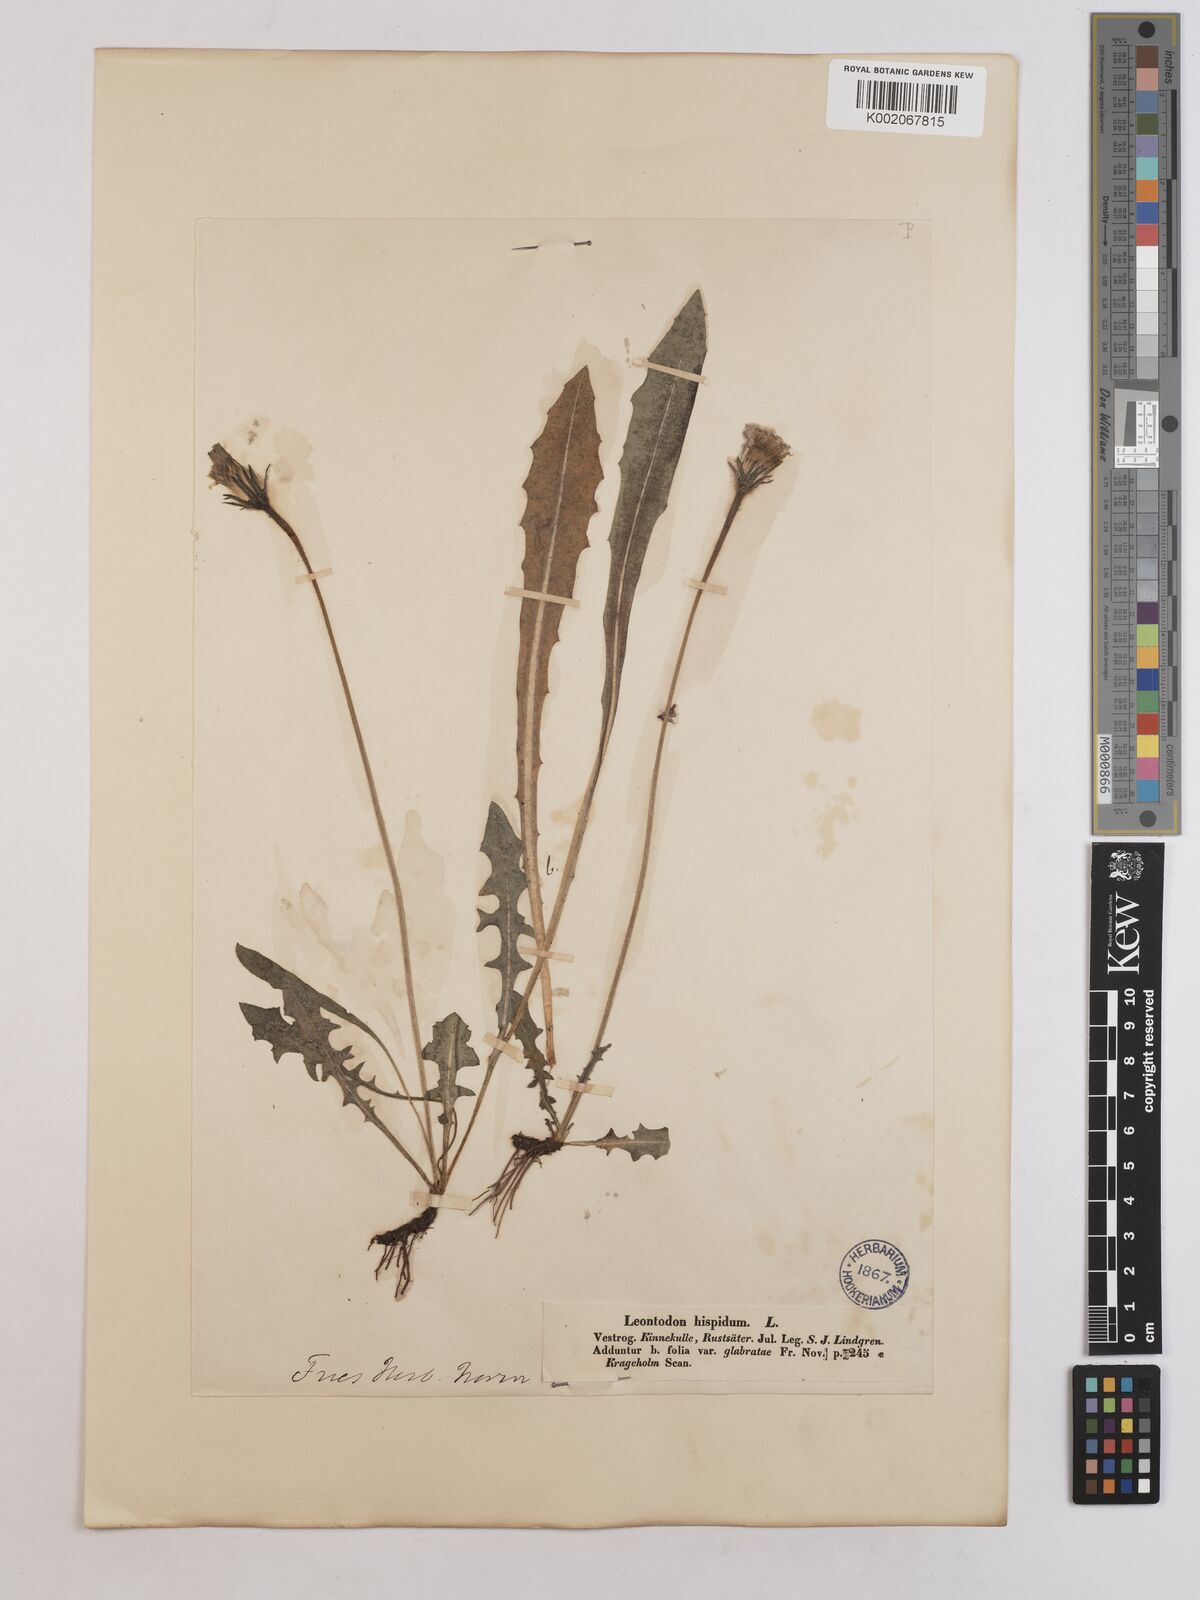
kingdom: Plantae
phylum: Tracheophyta
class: Magnoliopsida
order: Asterales
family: Asteraceae
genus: Leontodon
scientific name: Leontodon hispidus
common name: Rough hawkbit
